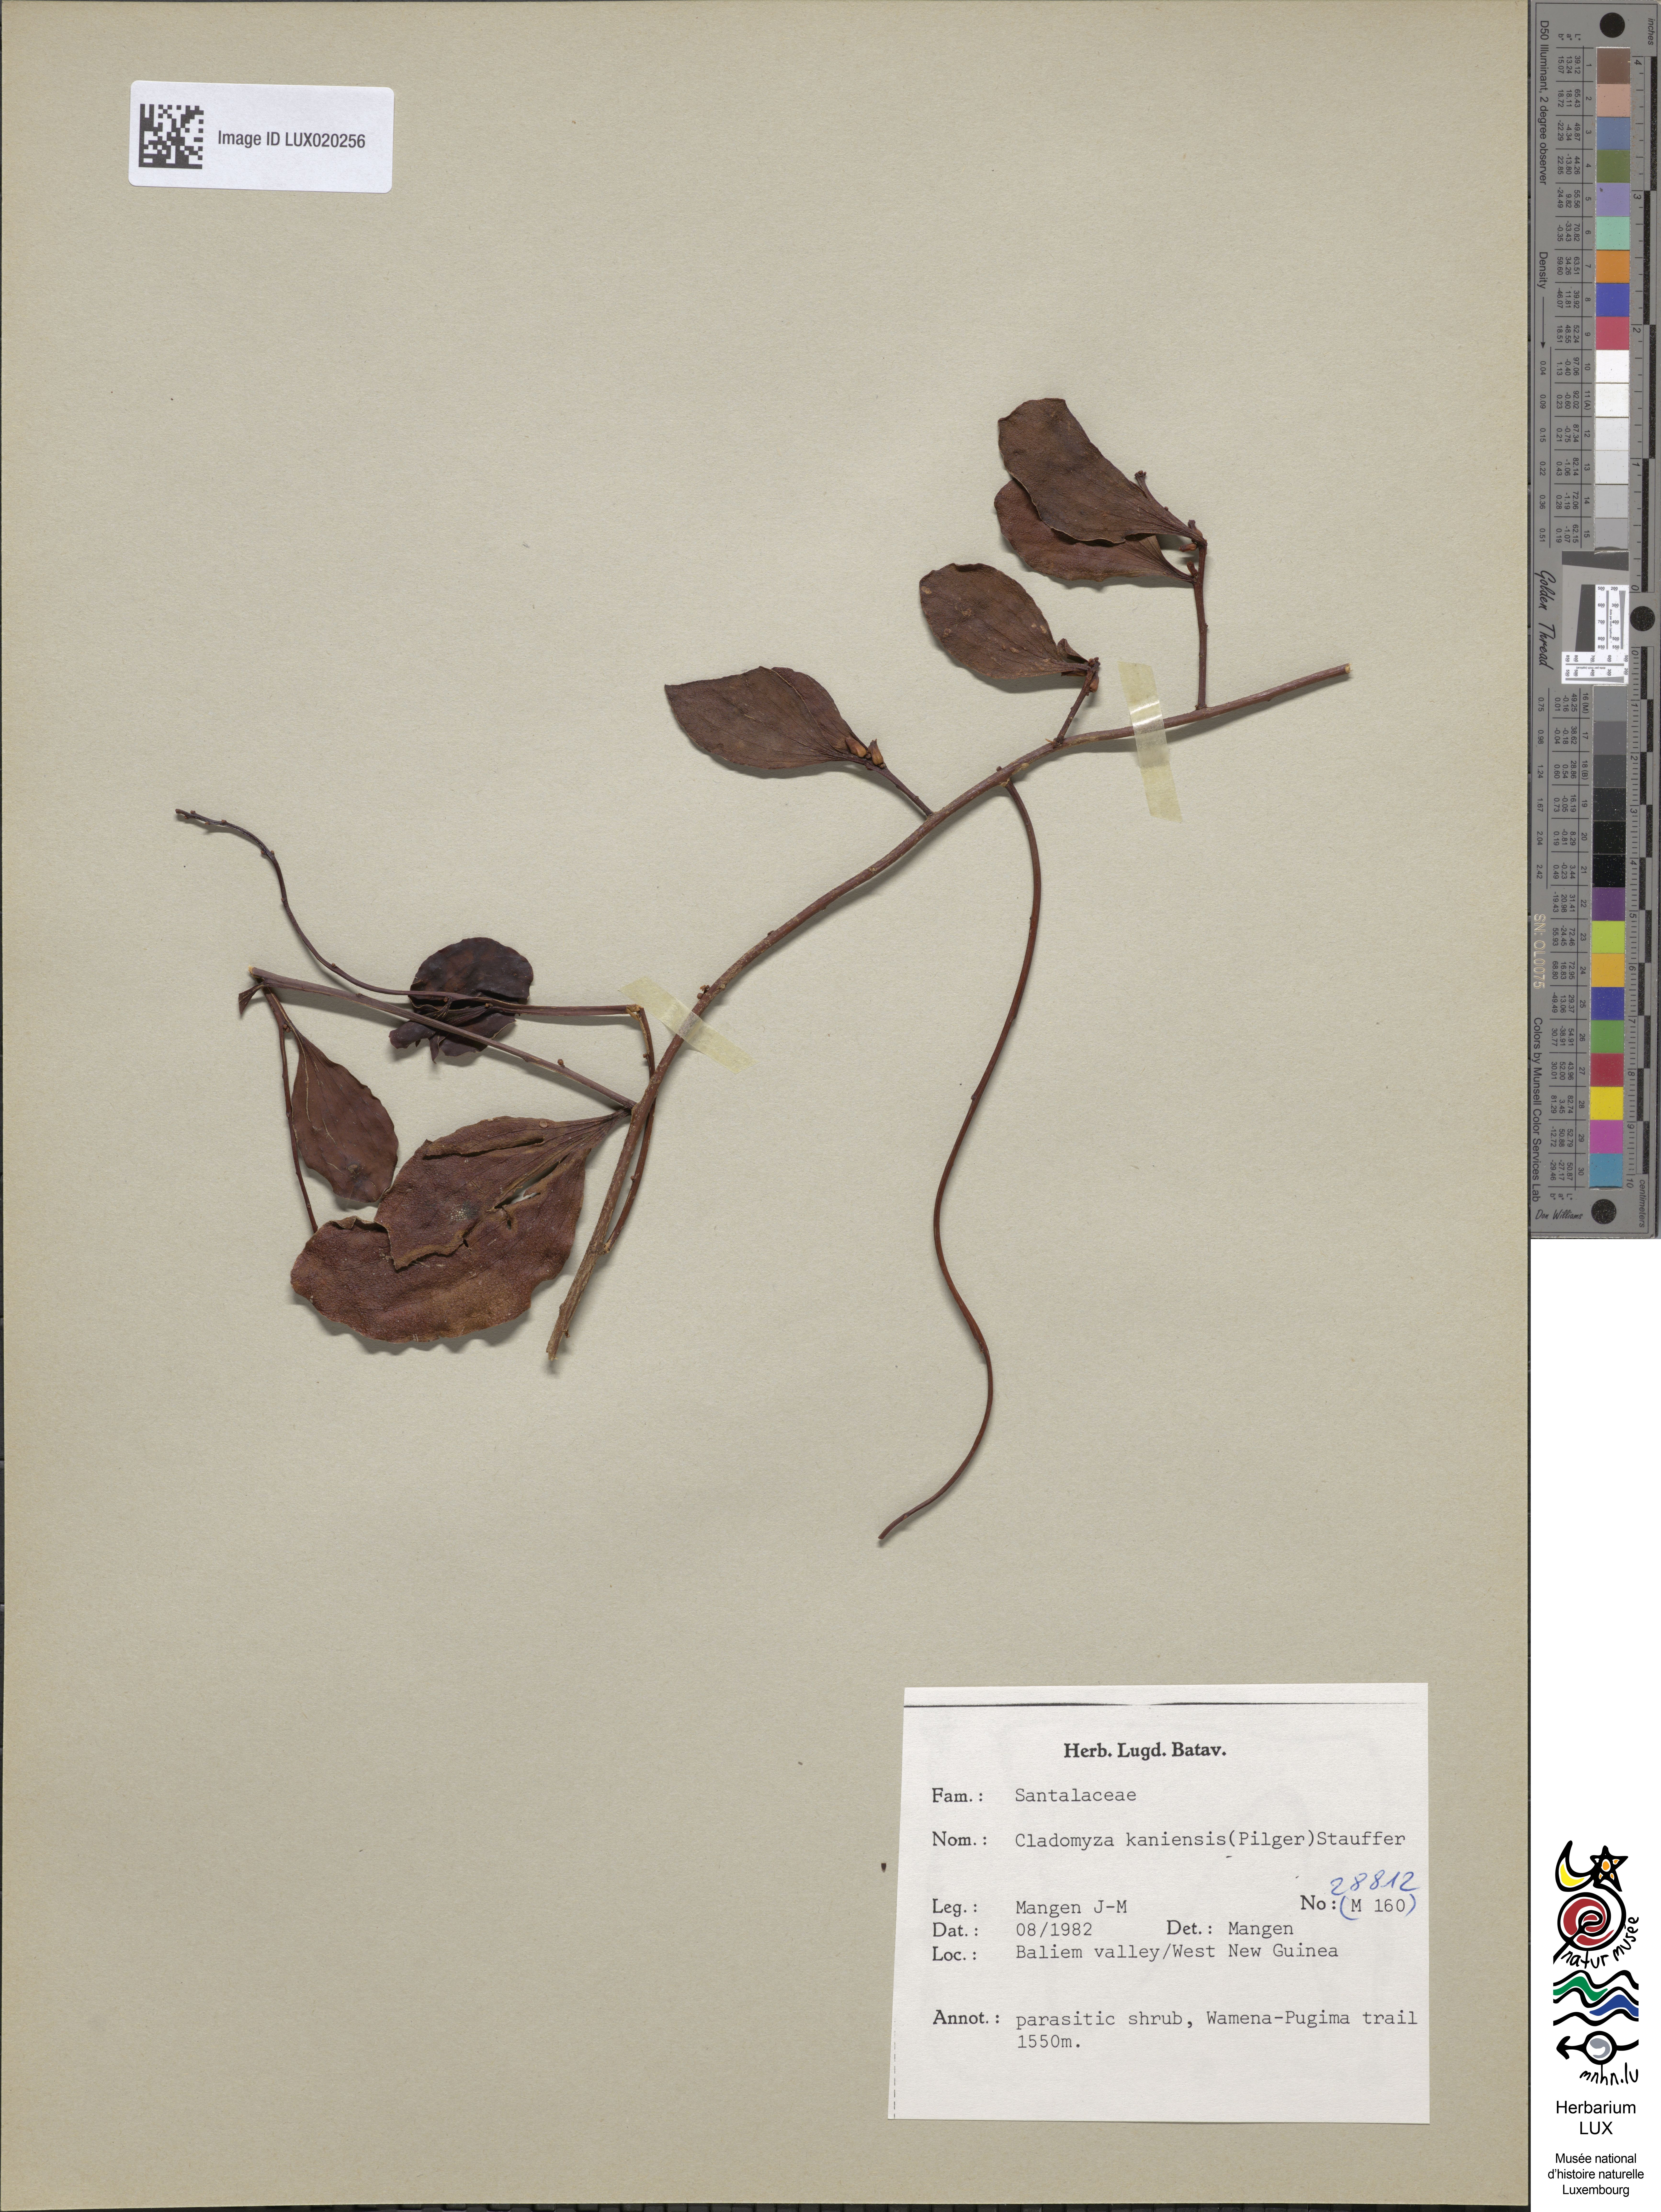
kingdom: Plantae
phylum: Tracheophyta
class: Magnoliopsida
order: Santalales
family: Amphorogynaceae
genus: Cladomyza
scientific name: Cladomyza kaniensis
